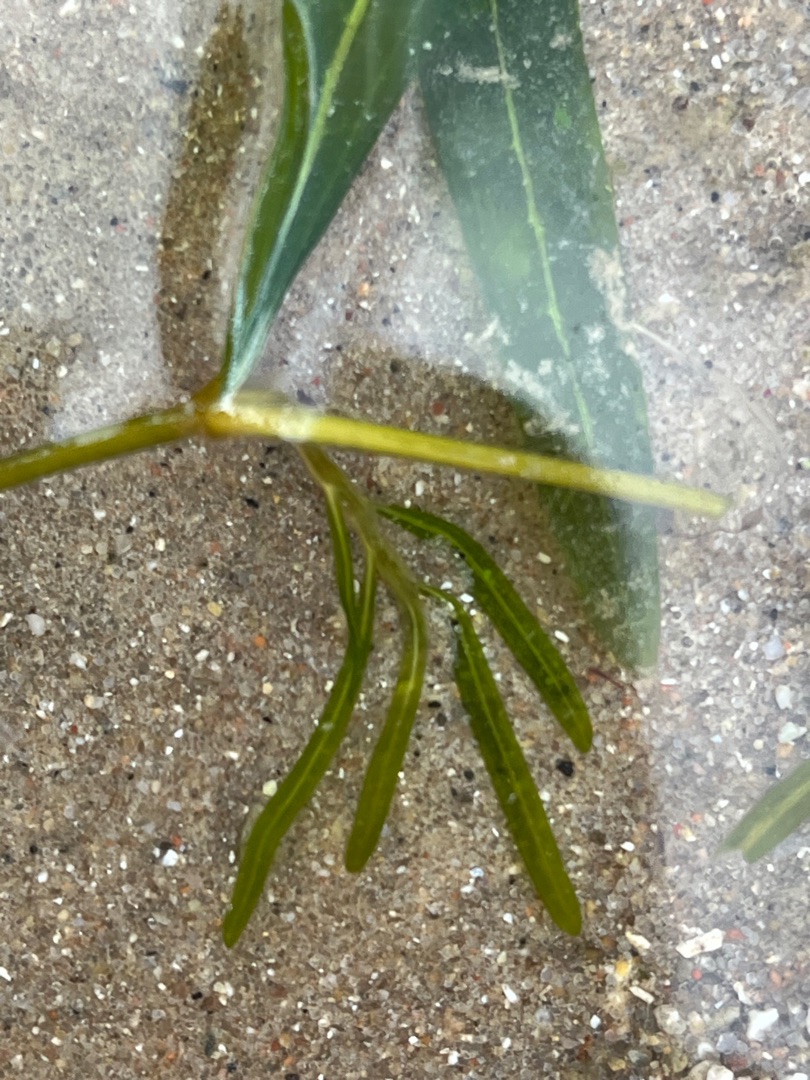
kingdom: Plantae
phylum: Tracheophyta
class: Liliopsida
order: Alismatales
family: Potamogetonaceae
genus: Potamogeton
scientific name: Potamogeton obtusifolius
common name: Butbladet vandaks
